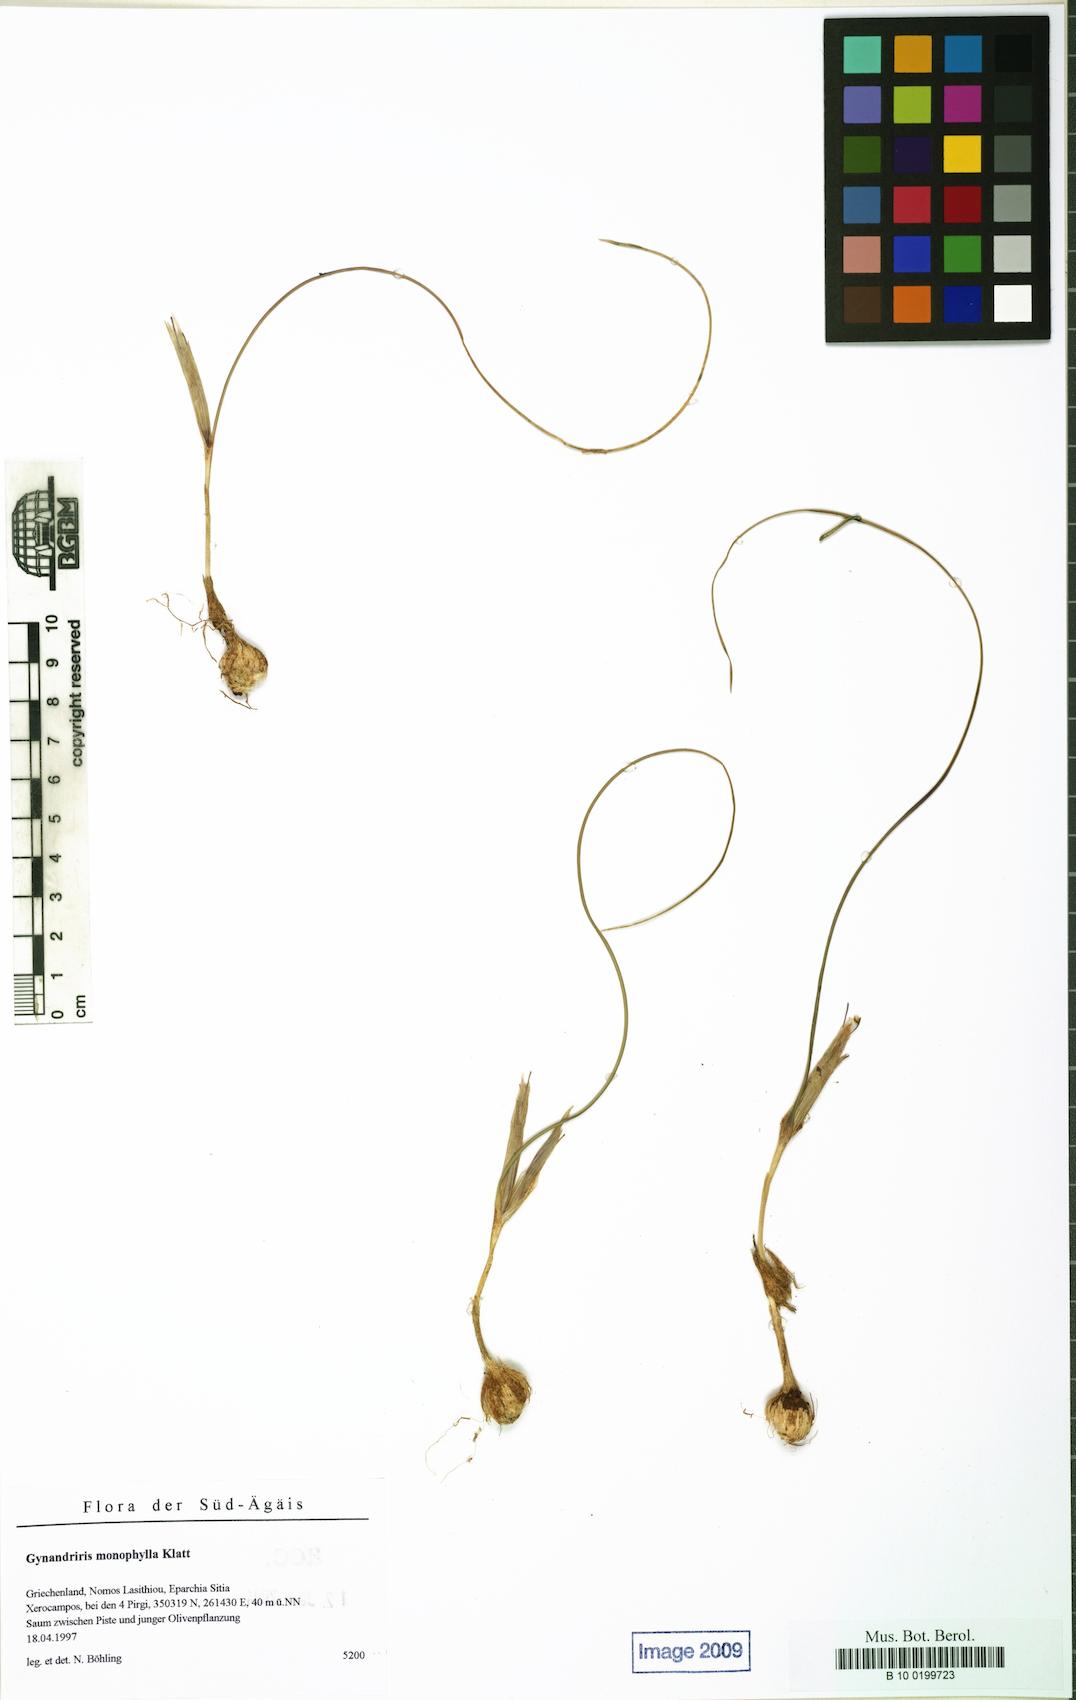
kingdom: Plantae
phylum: Tracheophyta
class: Liliopsida
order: Asparagales
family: Iridaceae
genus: Moraea
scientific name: Moraea mediterranea
